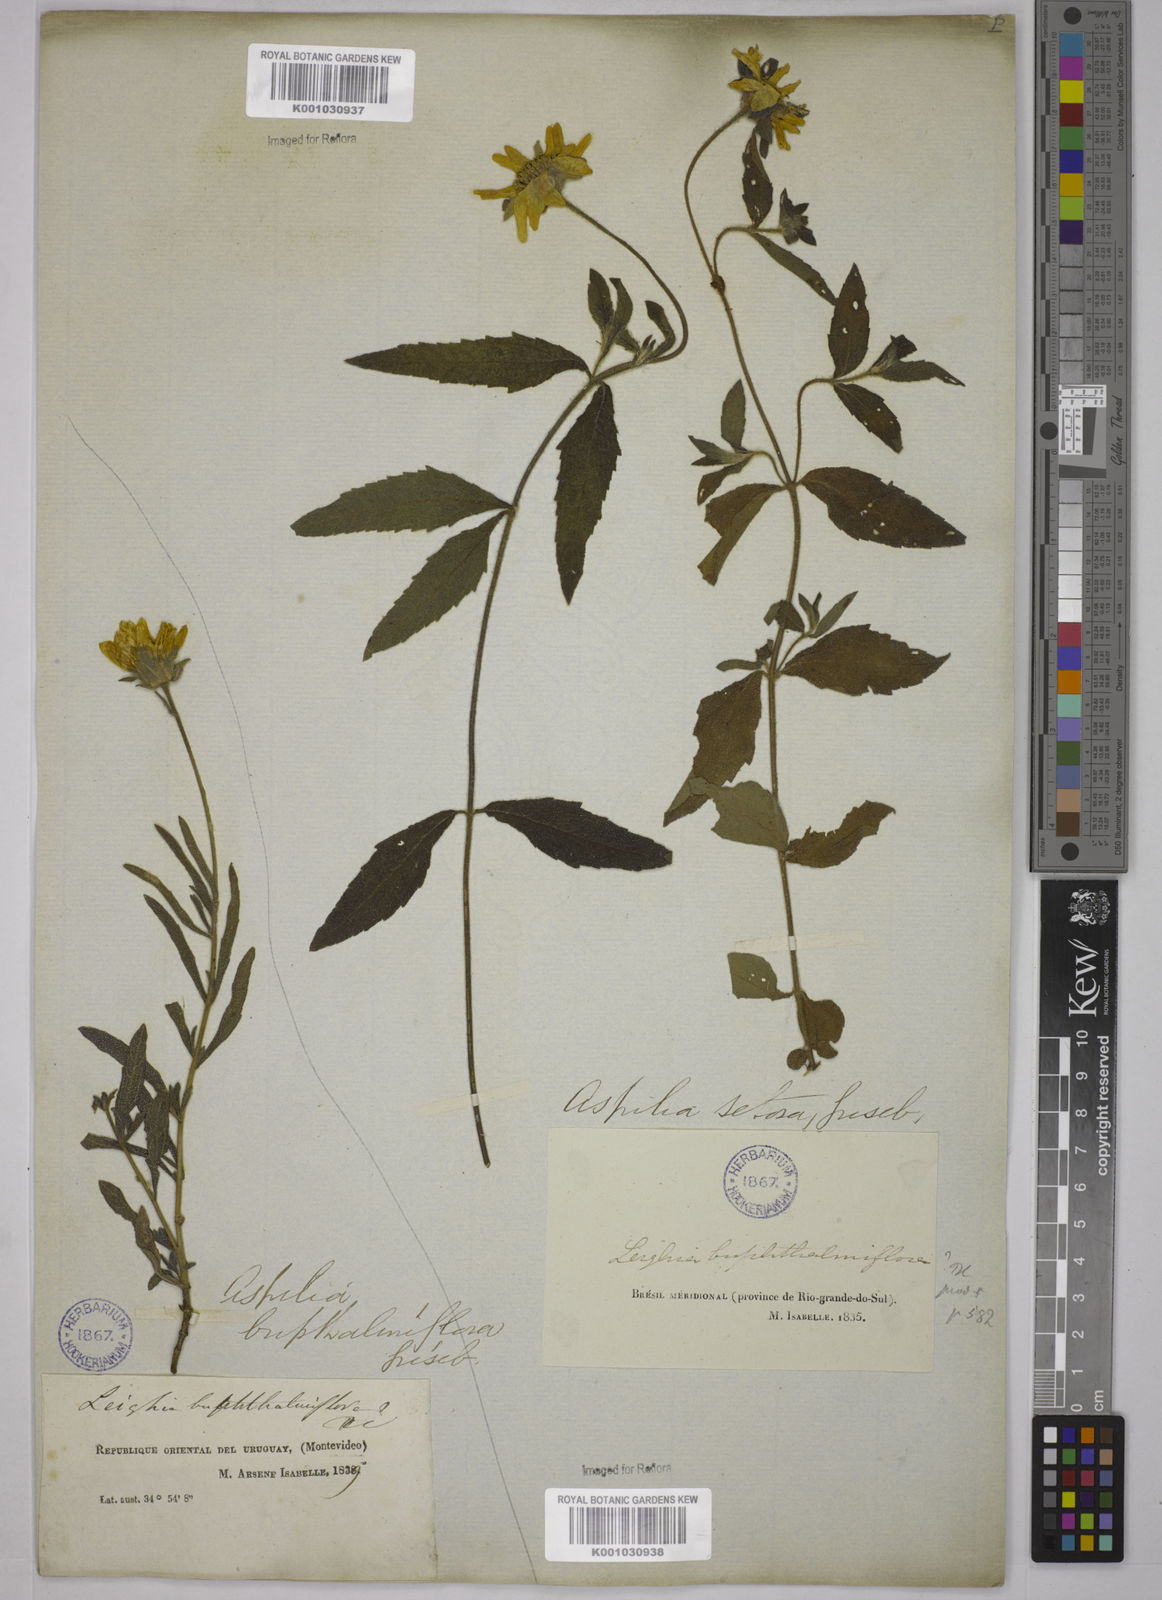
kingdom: Plantae
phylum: Tracheophyta
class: Magnoliopsida
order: Asterales
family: Asteraceae
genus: Aspilia
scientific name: Aspilia
